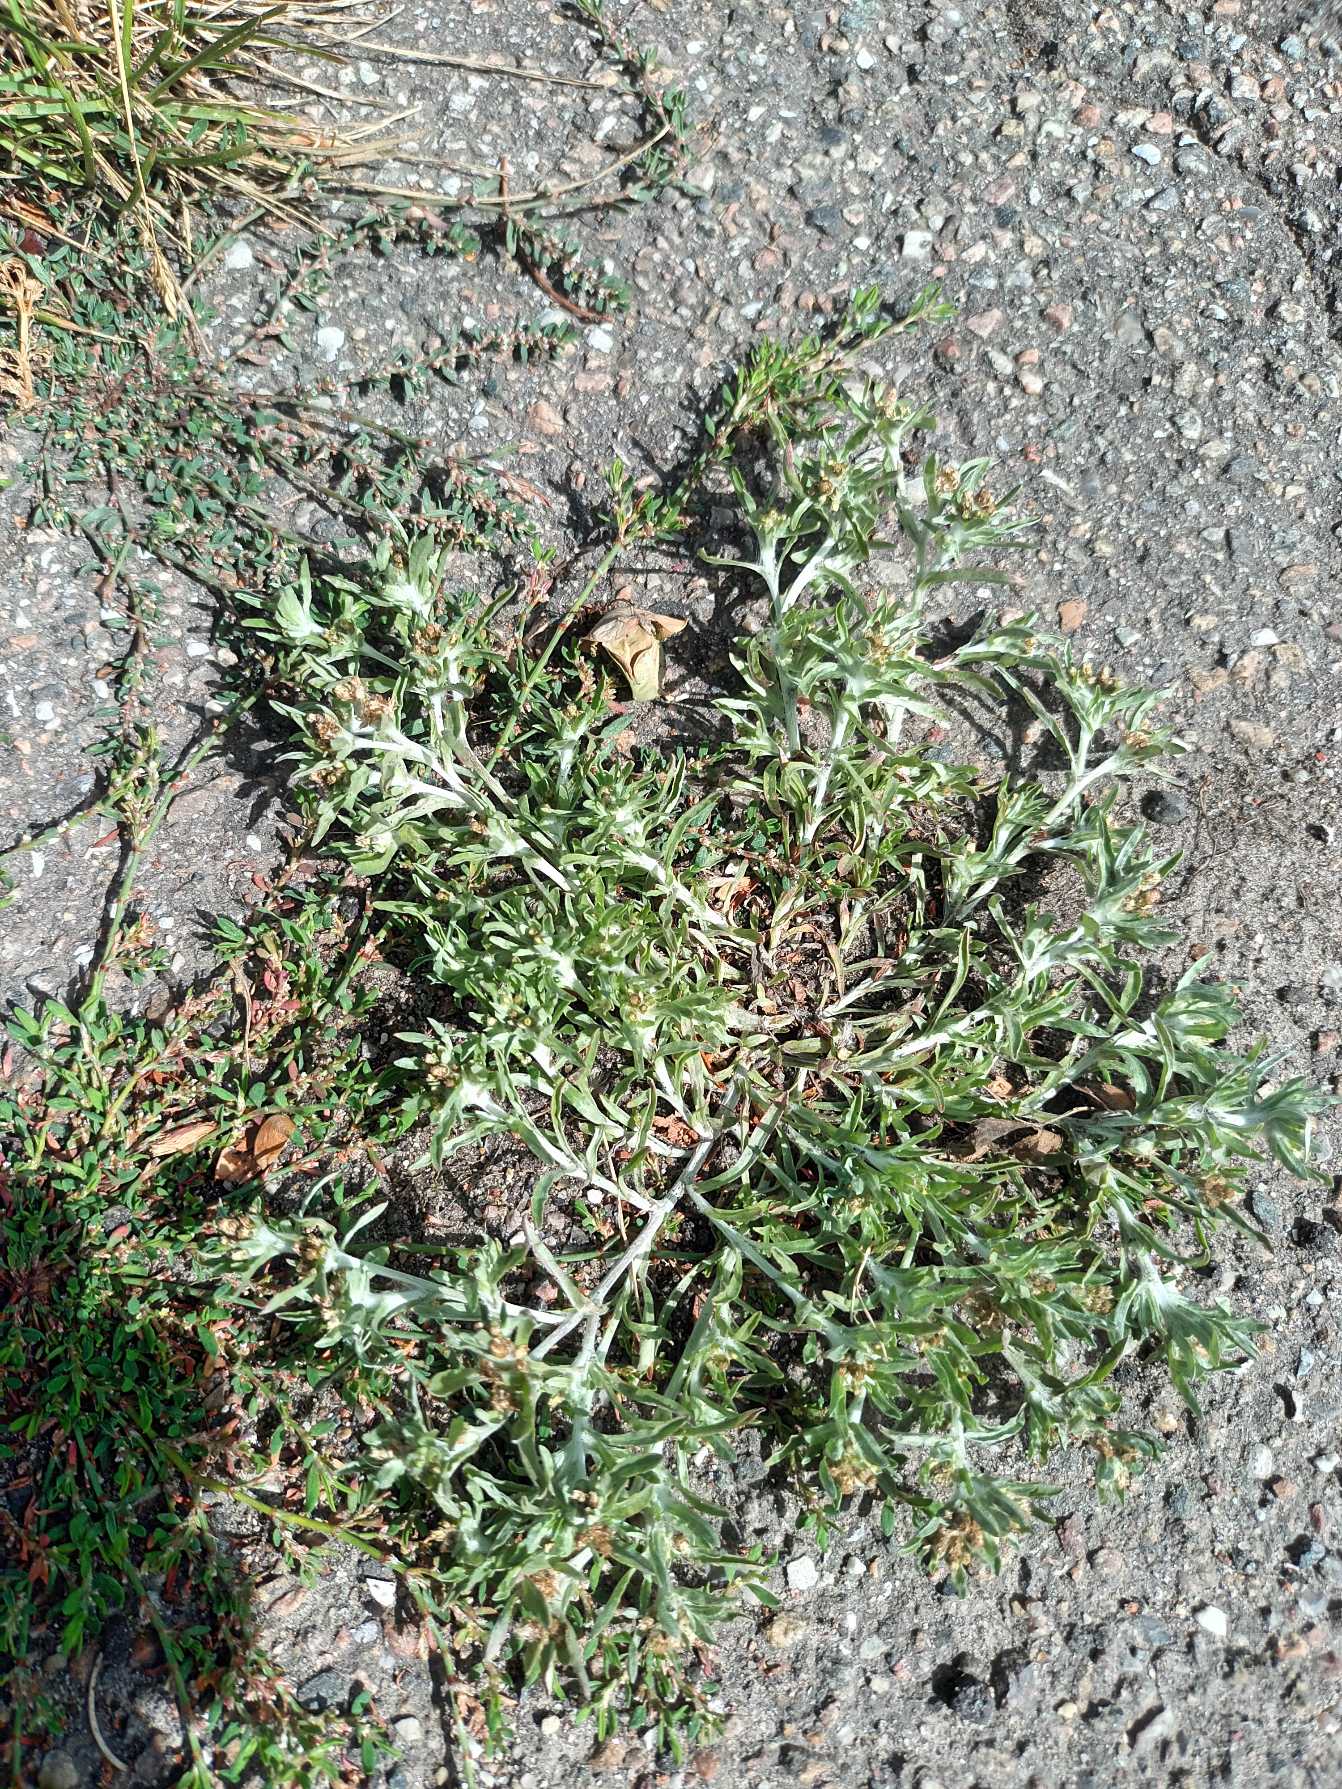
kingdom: Plantae
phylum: Tracheophyta
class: Magnoliopsida
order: Asterales
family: Asteraceae
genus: Gnaphalium
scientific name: Gnaphalium uliginosum
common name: Sump-evighedsblomst
